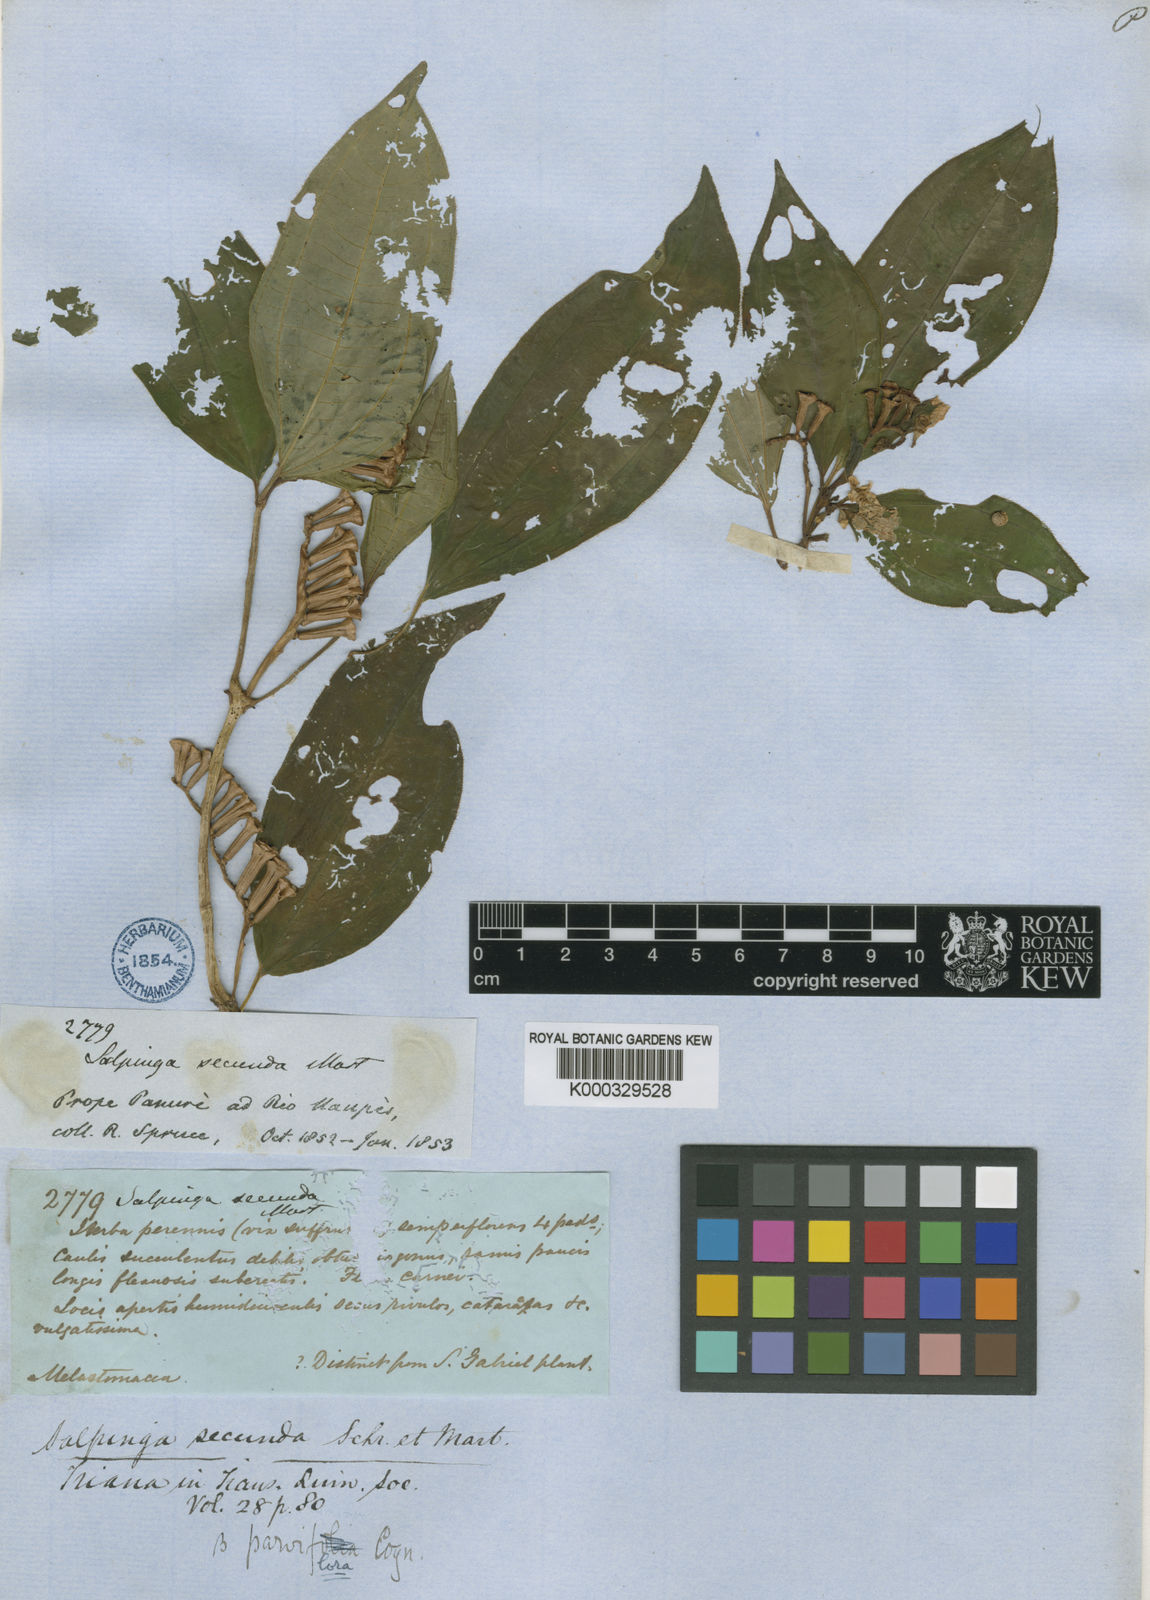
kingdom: Plantae
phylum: Tracheophyta
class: Magnoliopsida
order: Myrtales
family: Melastomataceae
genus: Salpinga
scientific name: Salpinga secunda
